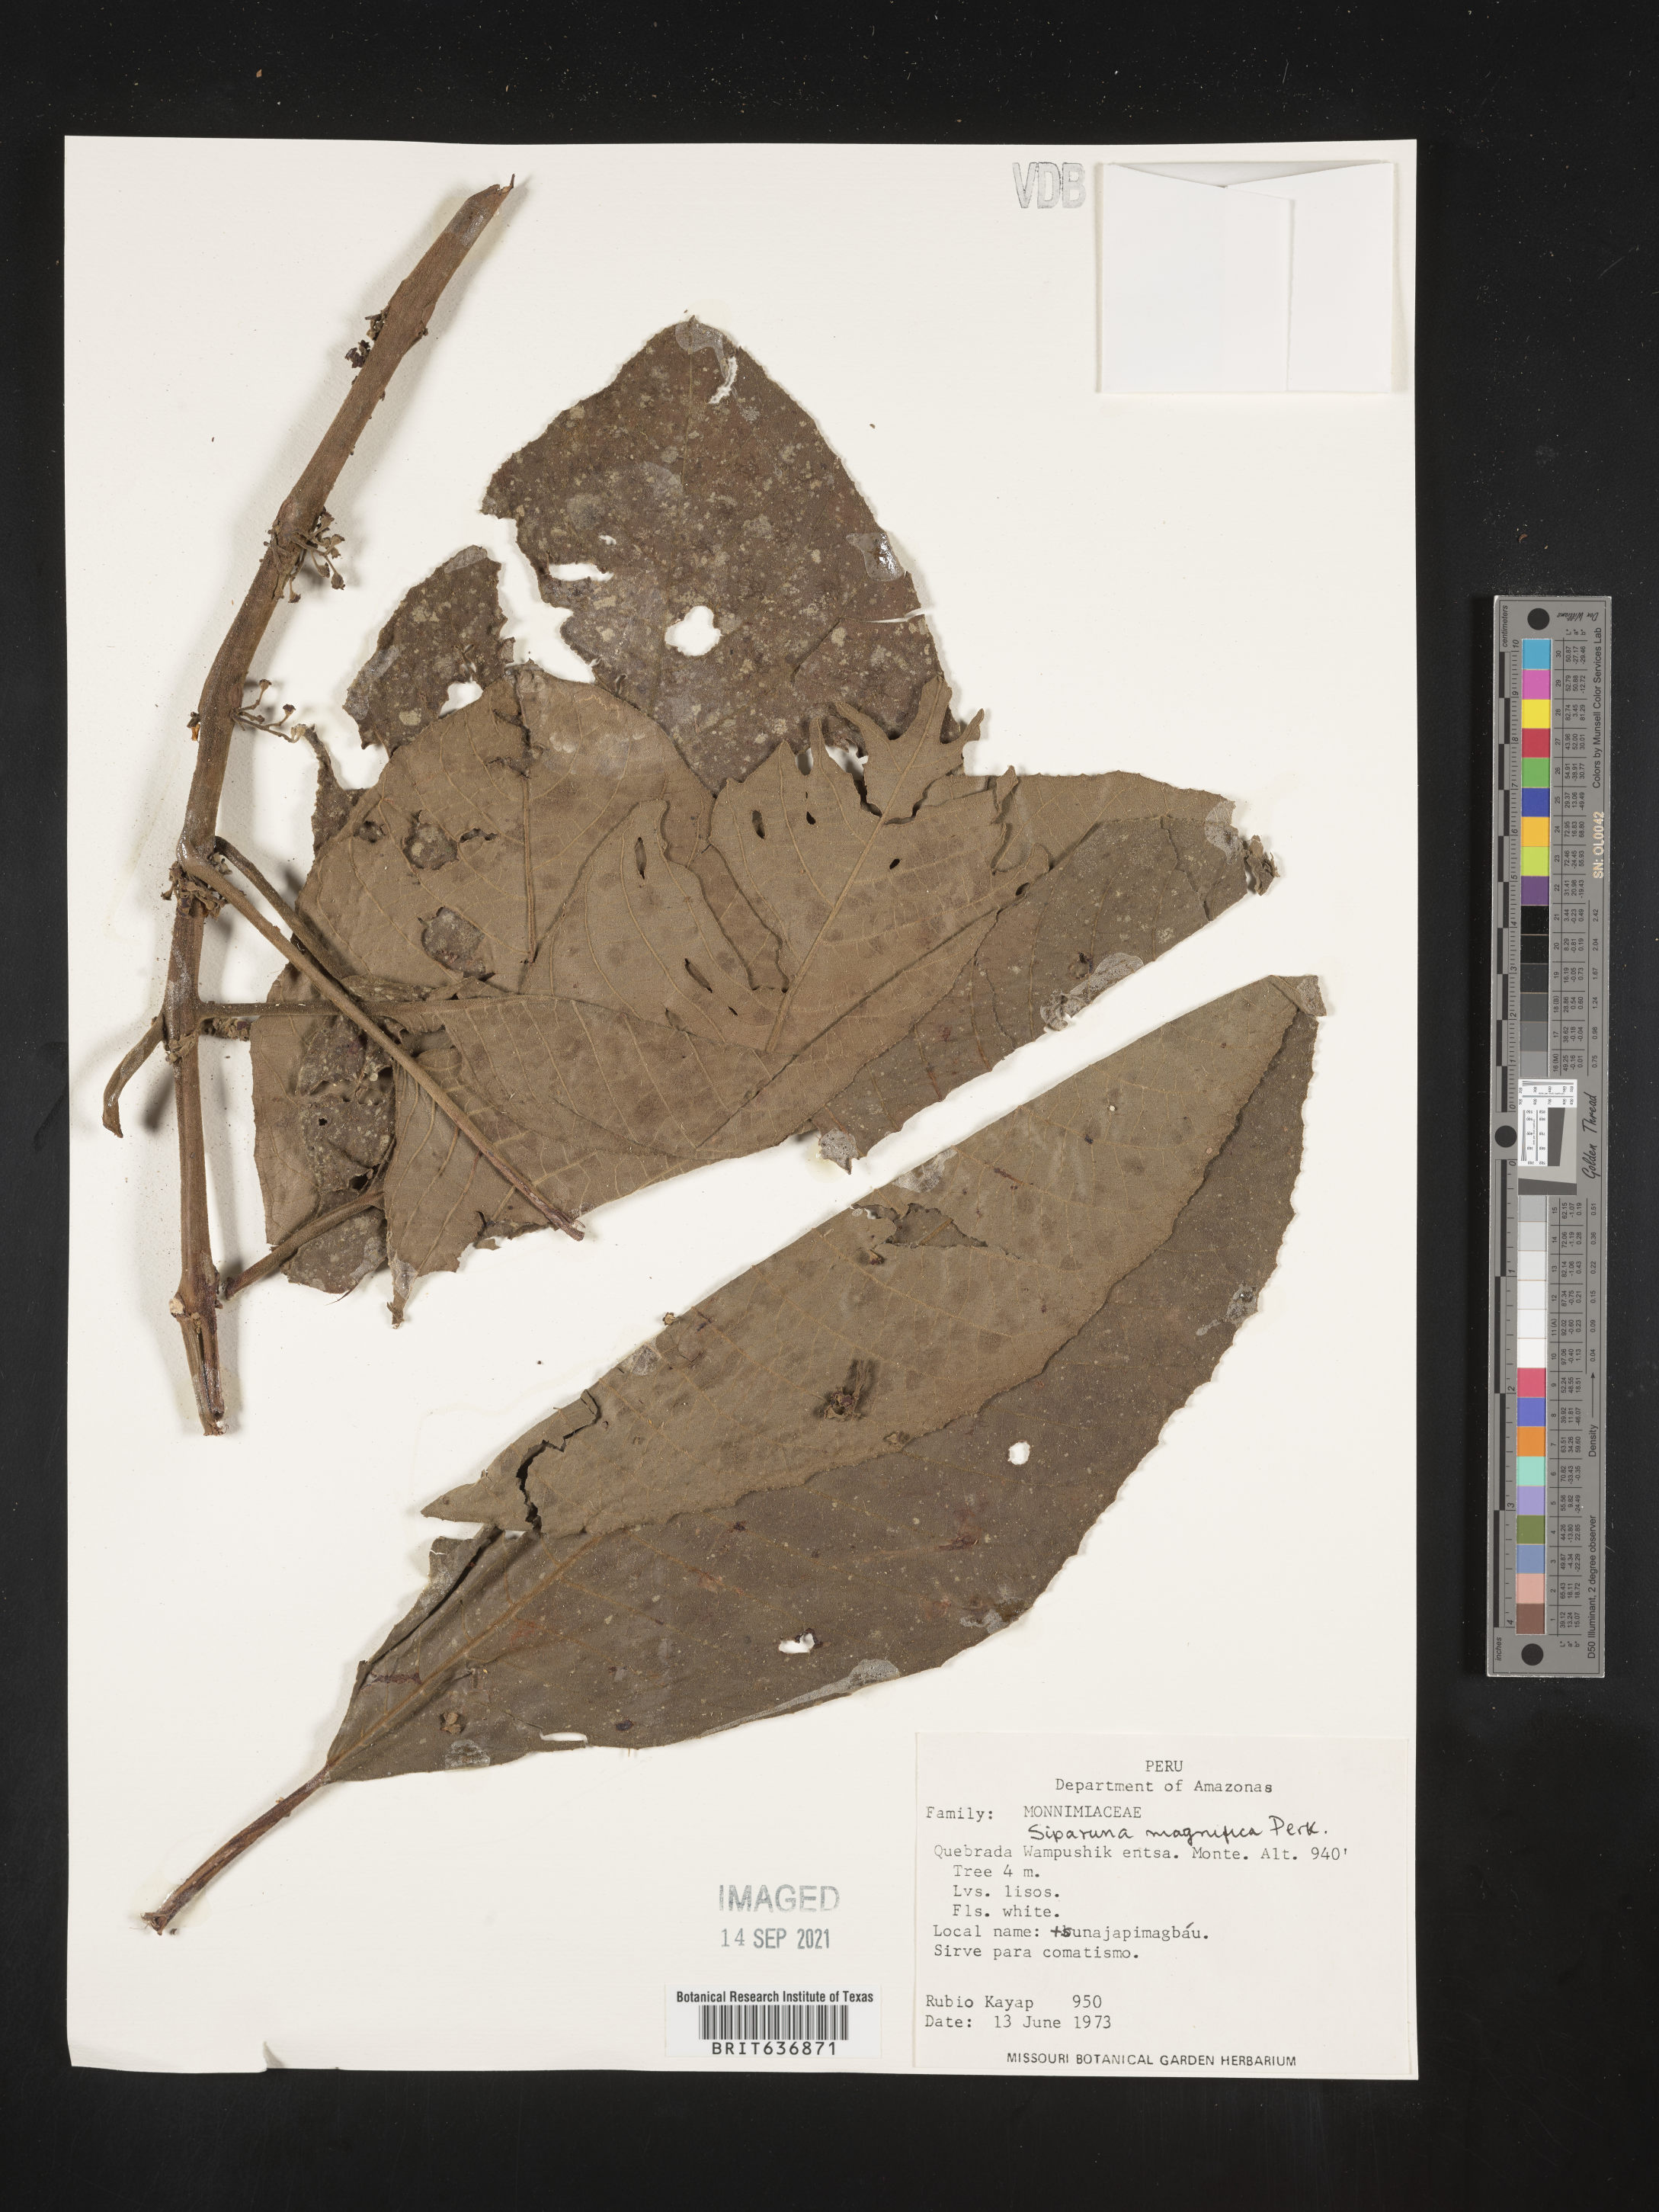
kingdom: Plantae
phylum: Tracheophyta
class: Magnoliopsida
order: Laurales
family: Siparunaceae
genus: Siparuna
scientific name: Siparuna
